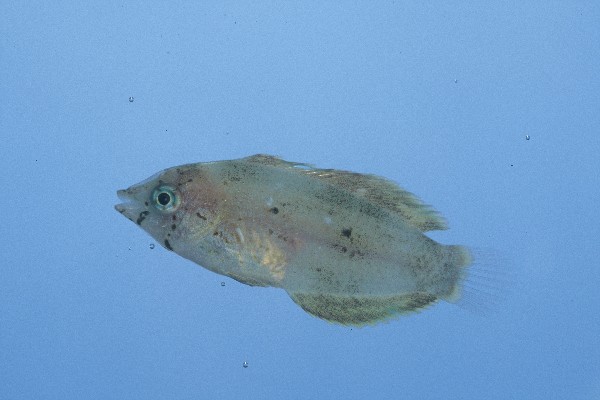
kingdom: Animalia
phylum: Chordata
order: Perciformes
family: Labridae
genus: Anampses
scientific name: Anampses caeruleopunctatus
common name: Bluespotted wrasse
